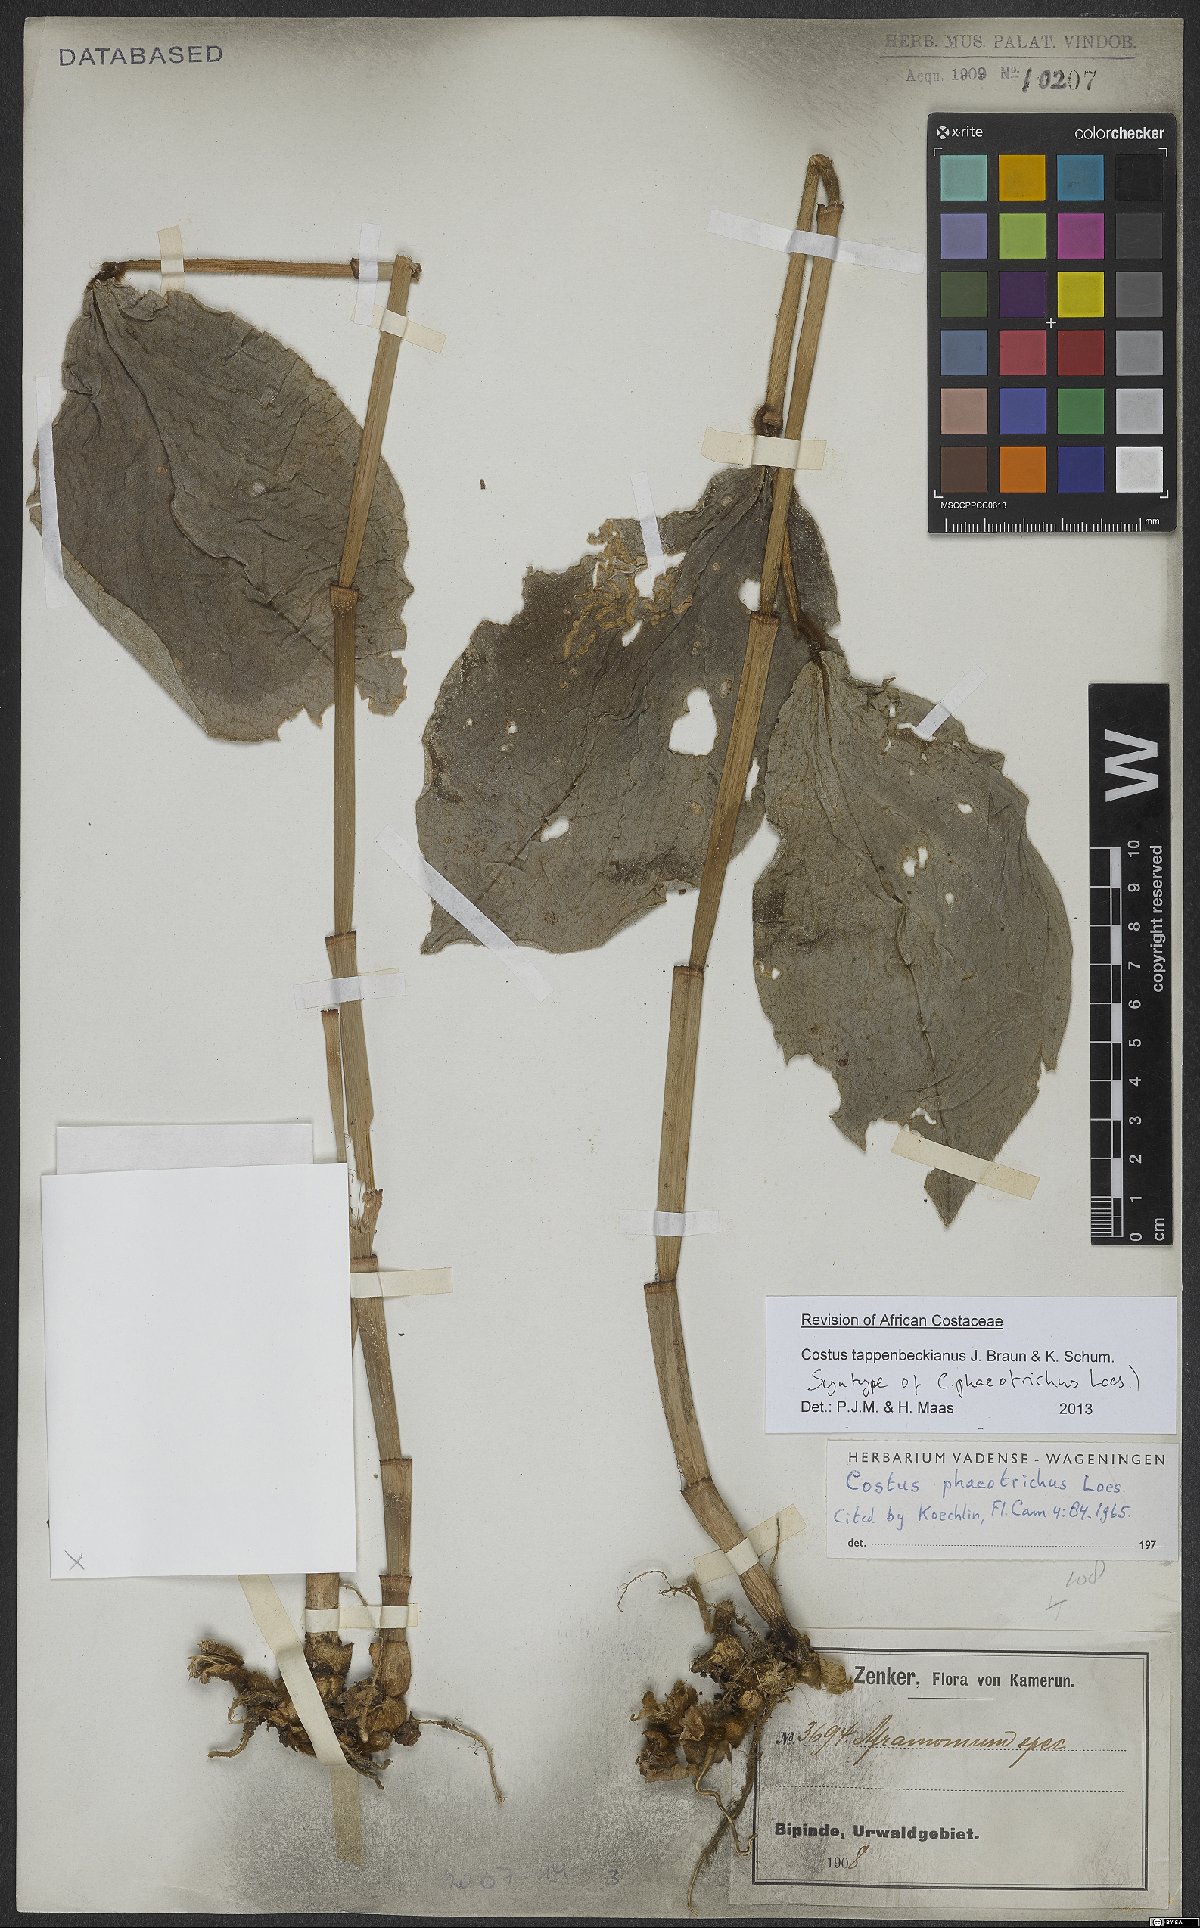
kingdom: Plantae
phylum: Tracheophyta
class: Liliopsida
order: Zingiberales
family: Costaceae
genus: Costus
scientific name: Costus tappenbeckianus
